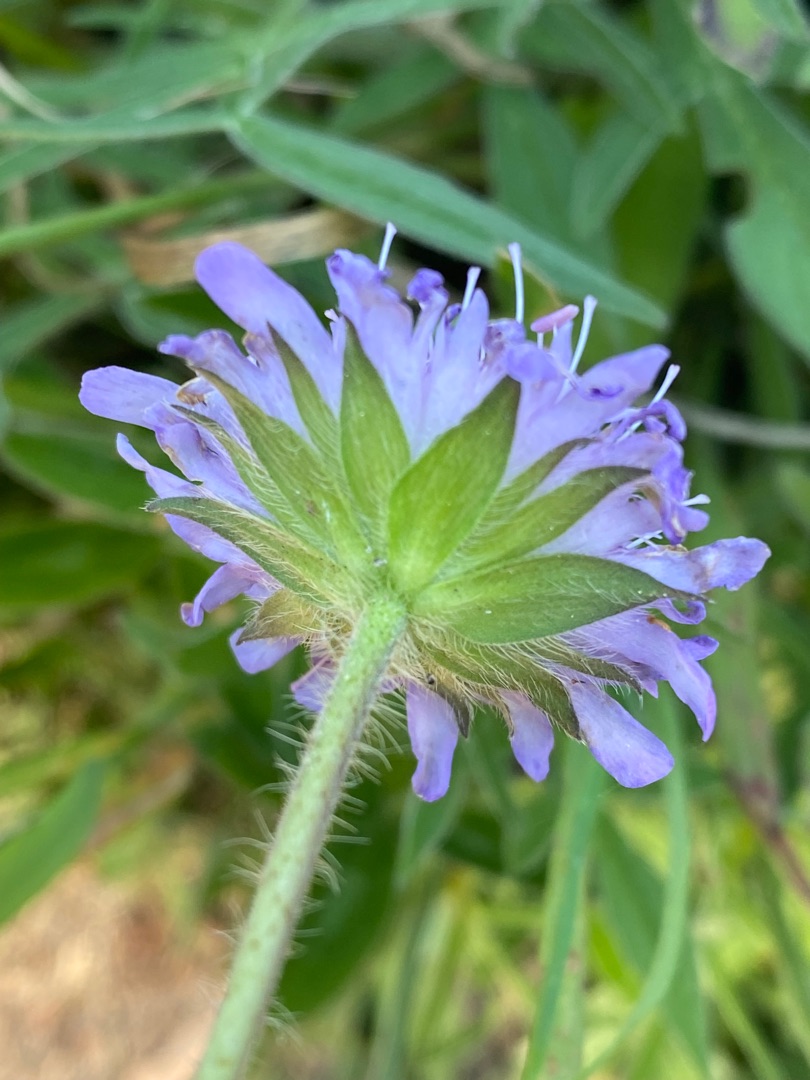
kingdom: Plantae
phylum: Tracheophyta
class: Magnoliopsida
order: Dipsacales
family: Caprifoliaceae
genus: Knautia
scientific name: Knautia arvensis
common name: Blåhat
